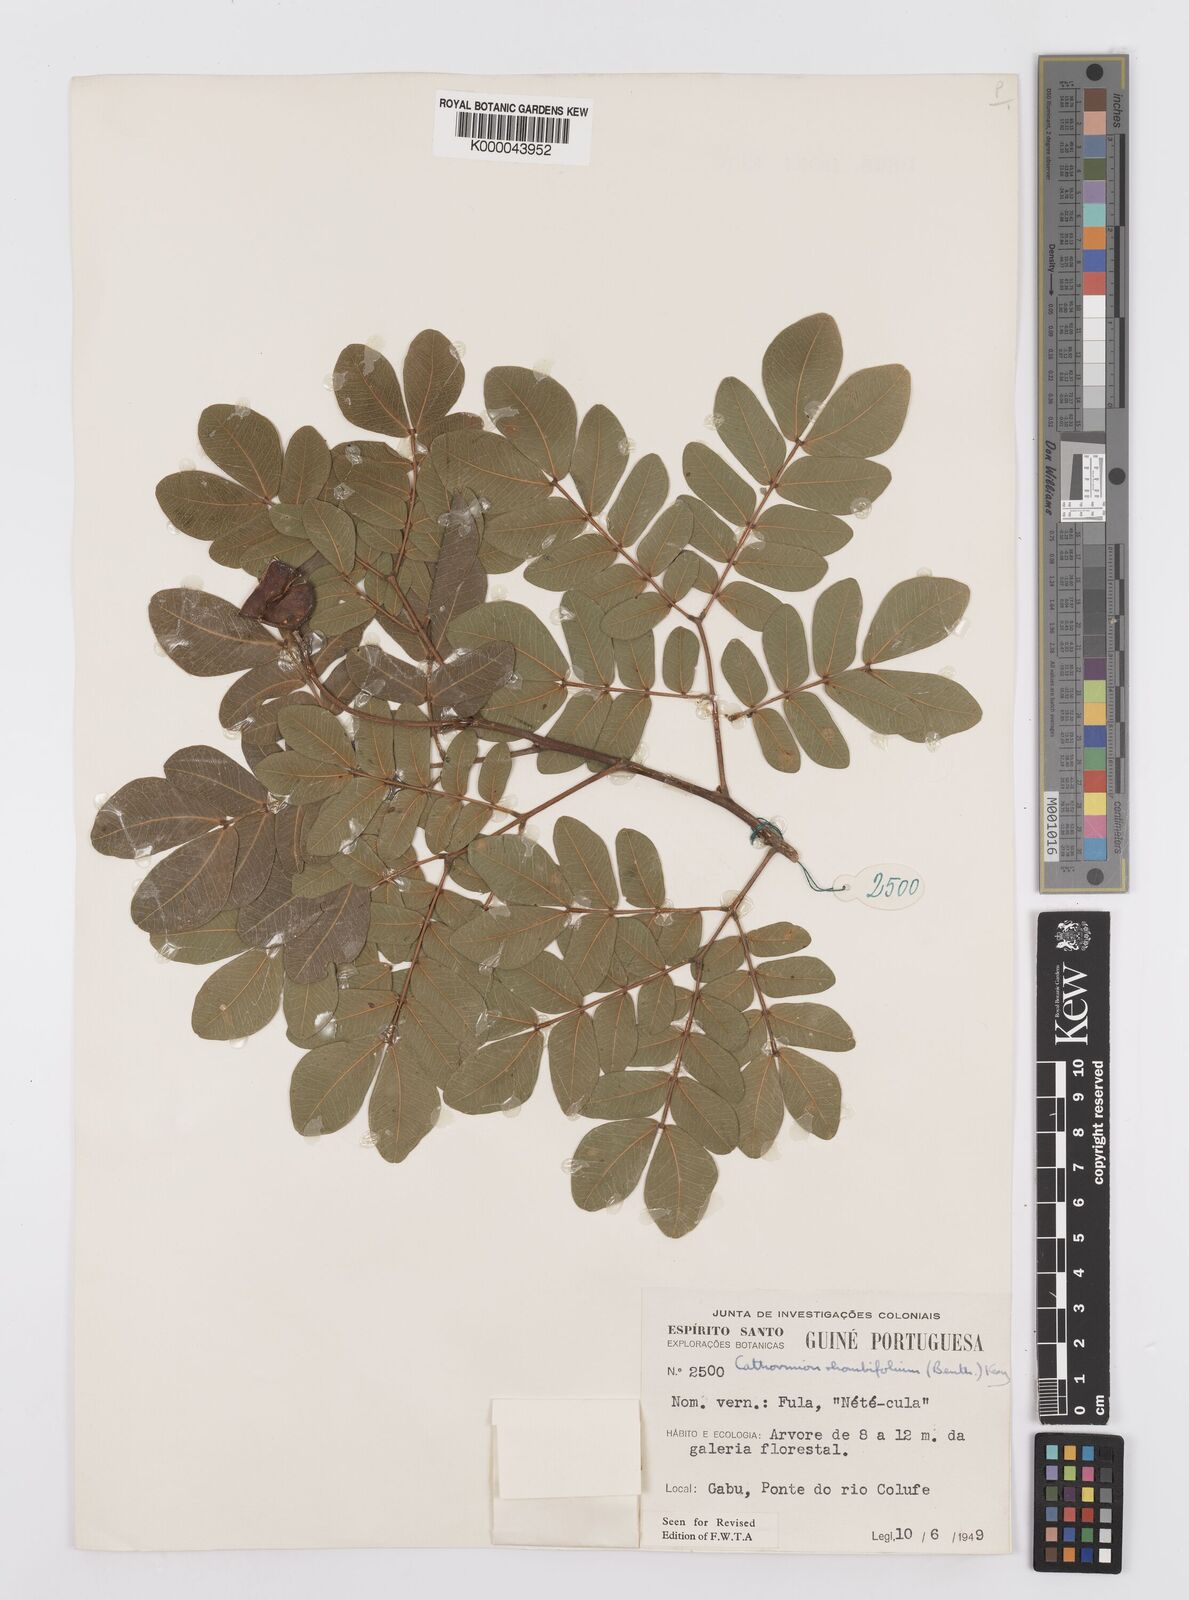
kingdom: Plantae
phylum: Tracheophyta
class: Magnoliopsida
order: Fabales
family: Fabaceae
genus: Albizia
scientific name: Albizia rhombifolia
